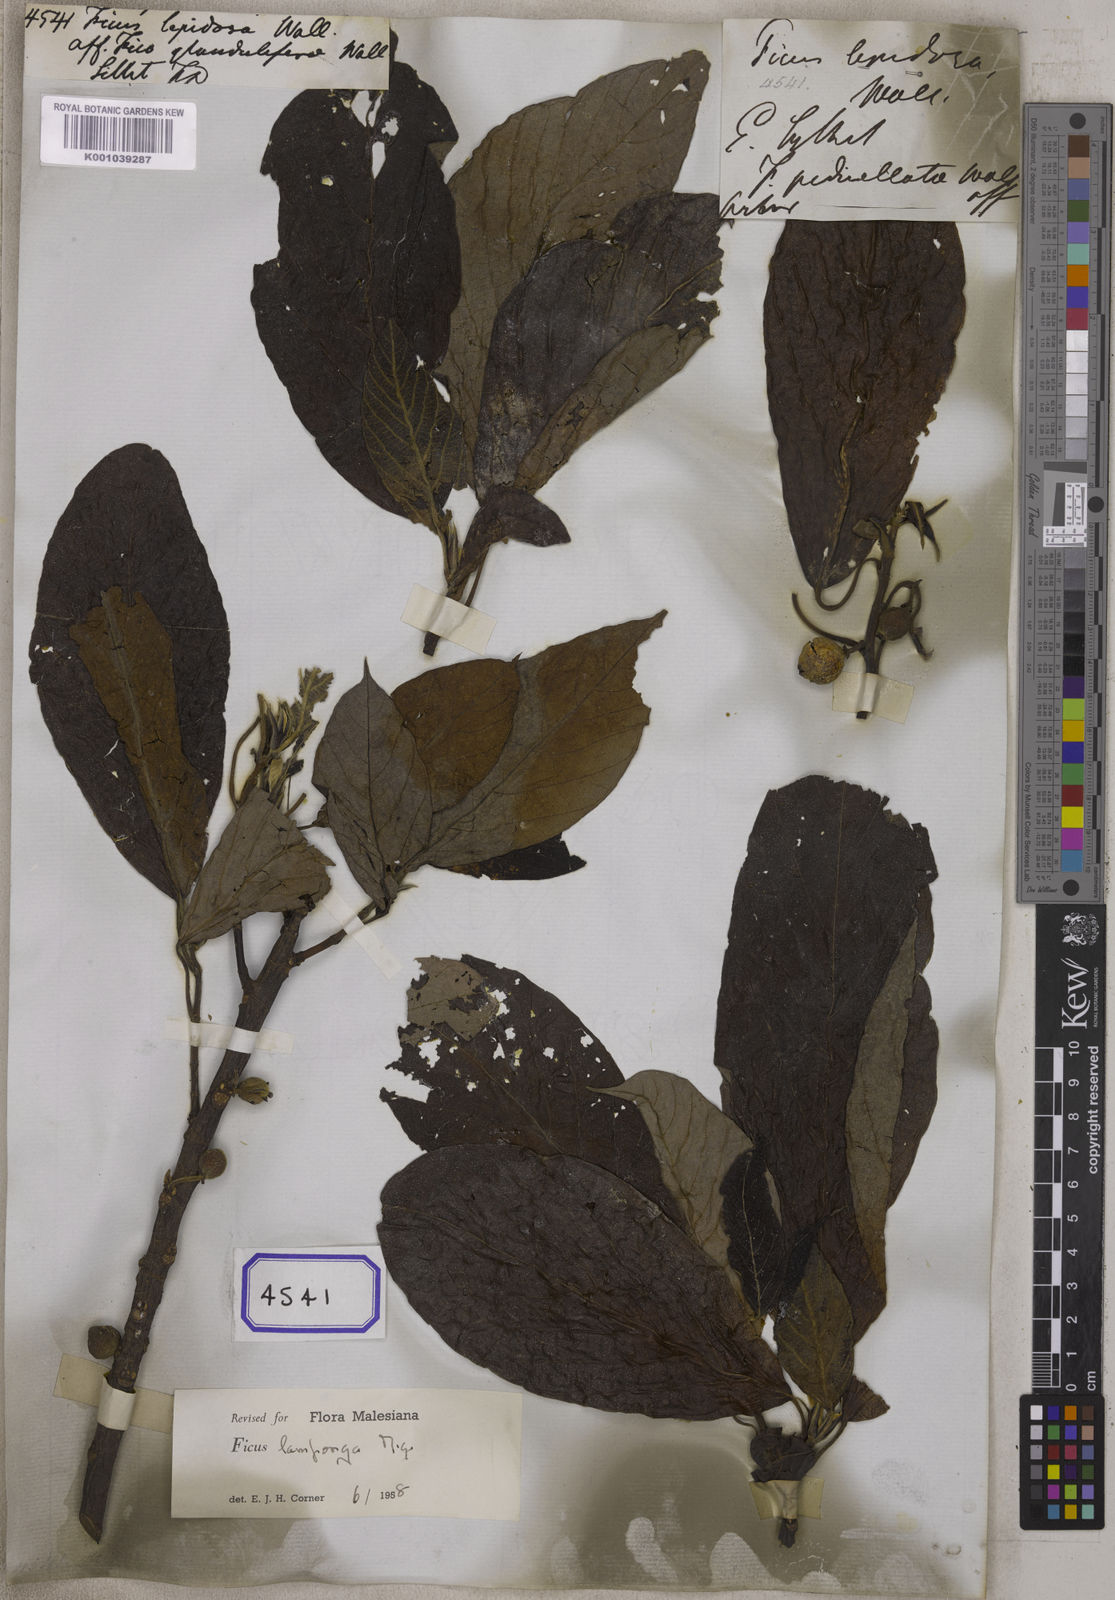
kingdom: Plantae
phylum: Tracheophyta
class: Magnoliopsida
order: Rosales
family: Moraceae
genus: Ficus
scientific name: Ficus
